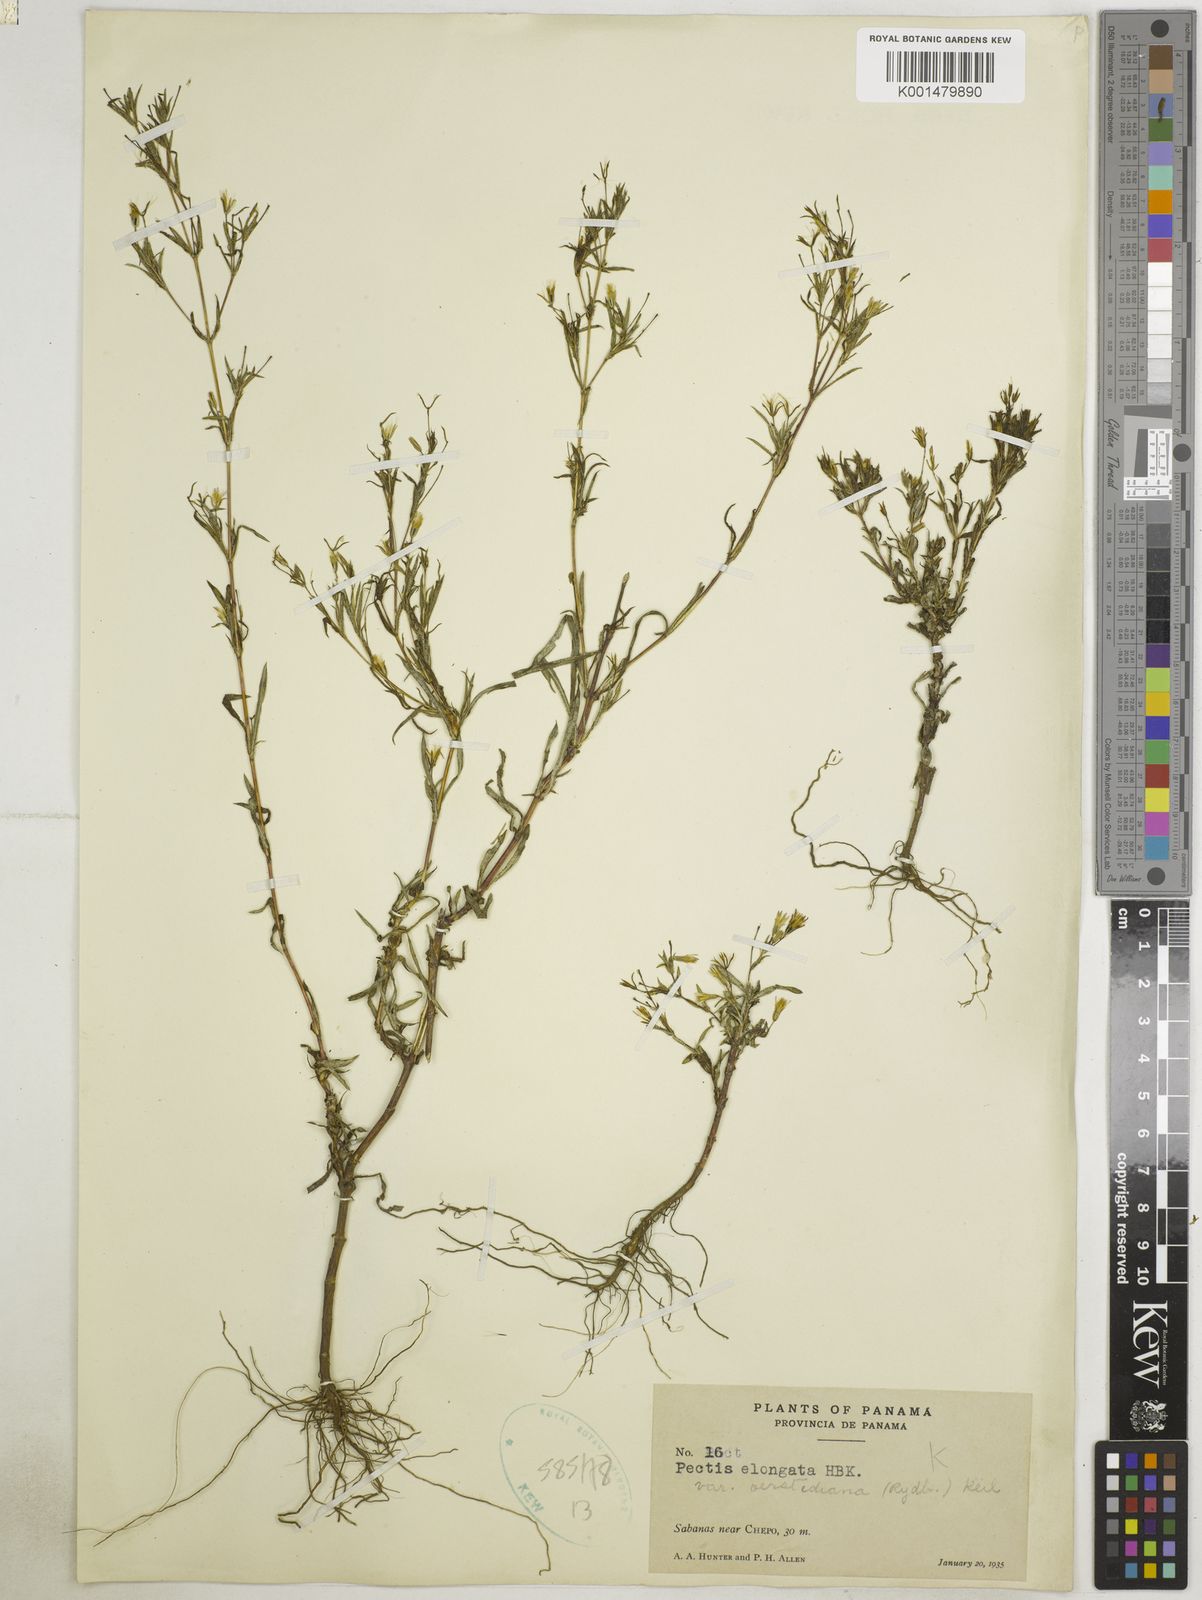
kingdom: Plantae
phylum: Tracheophyta
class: Magnoliopsida
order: Asterales
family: Asteraceae
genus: Pectis
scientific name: Pectis elongata
